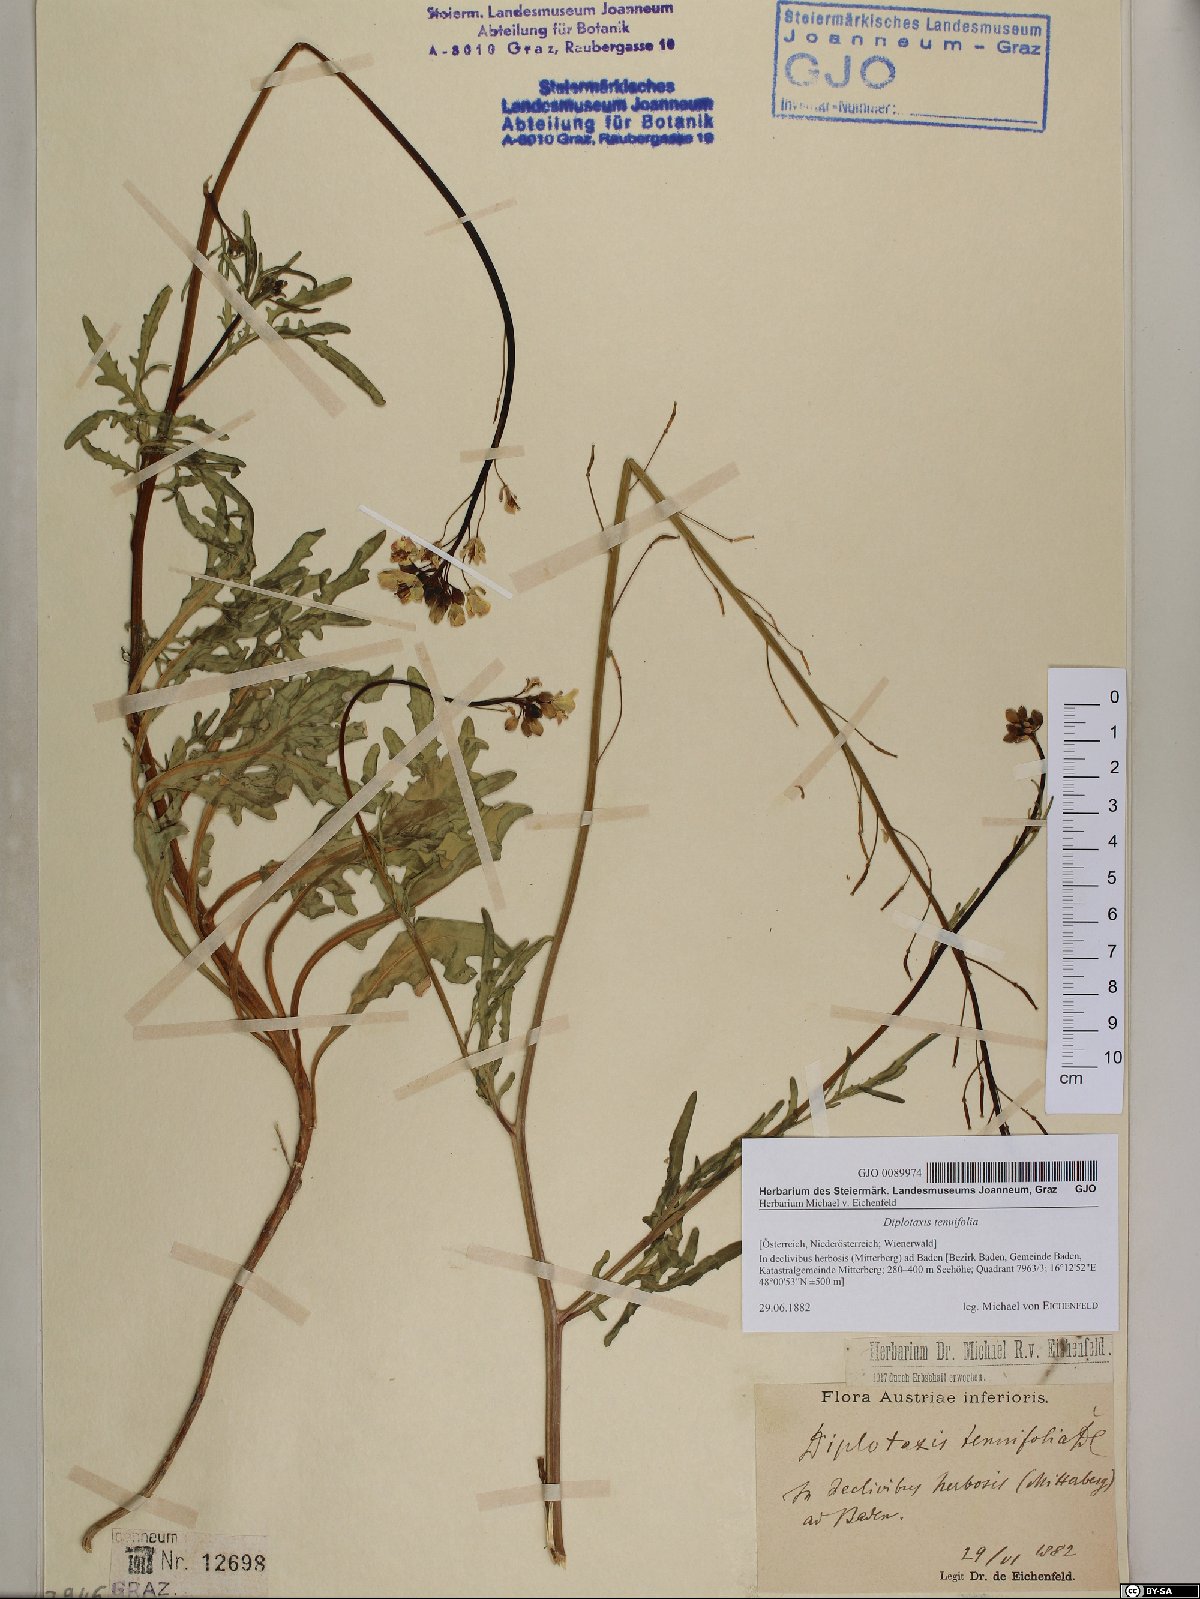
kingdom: Plantae
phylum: Tracheophyta
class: Magnoliopsida
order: Brassicales
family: Brassicaceae
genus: Diplotaxis
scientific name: Diplotaxis tenuifolia
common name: Perennial wall-rocket
